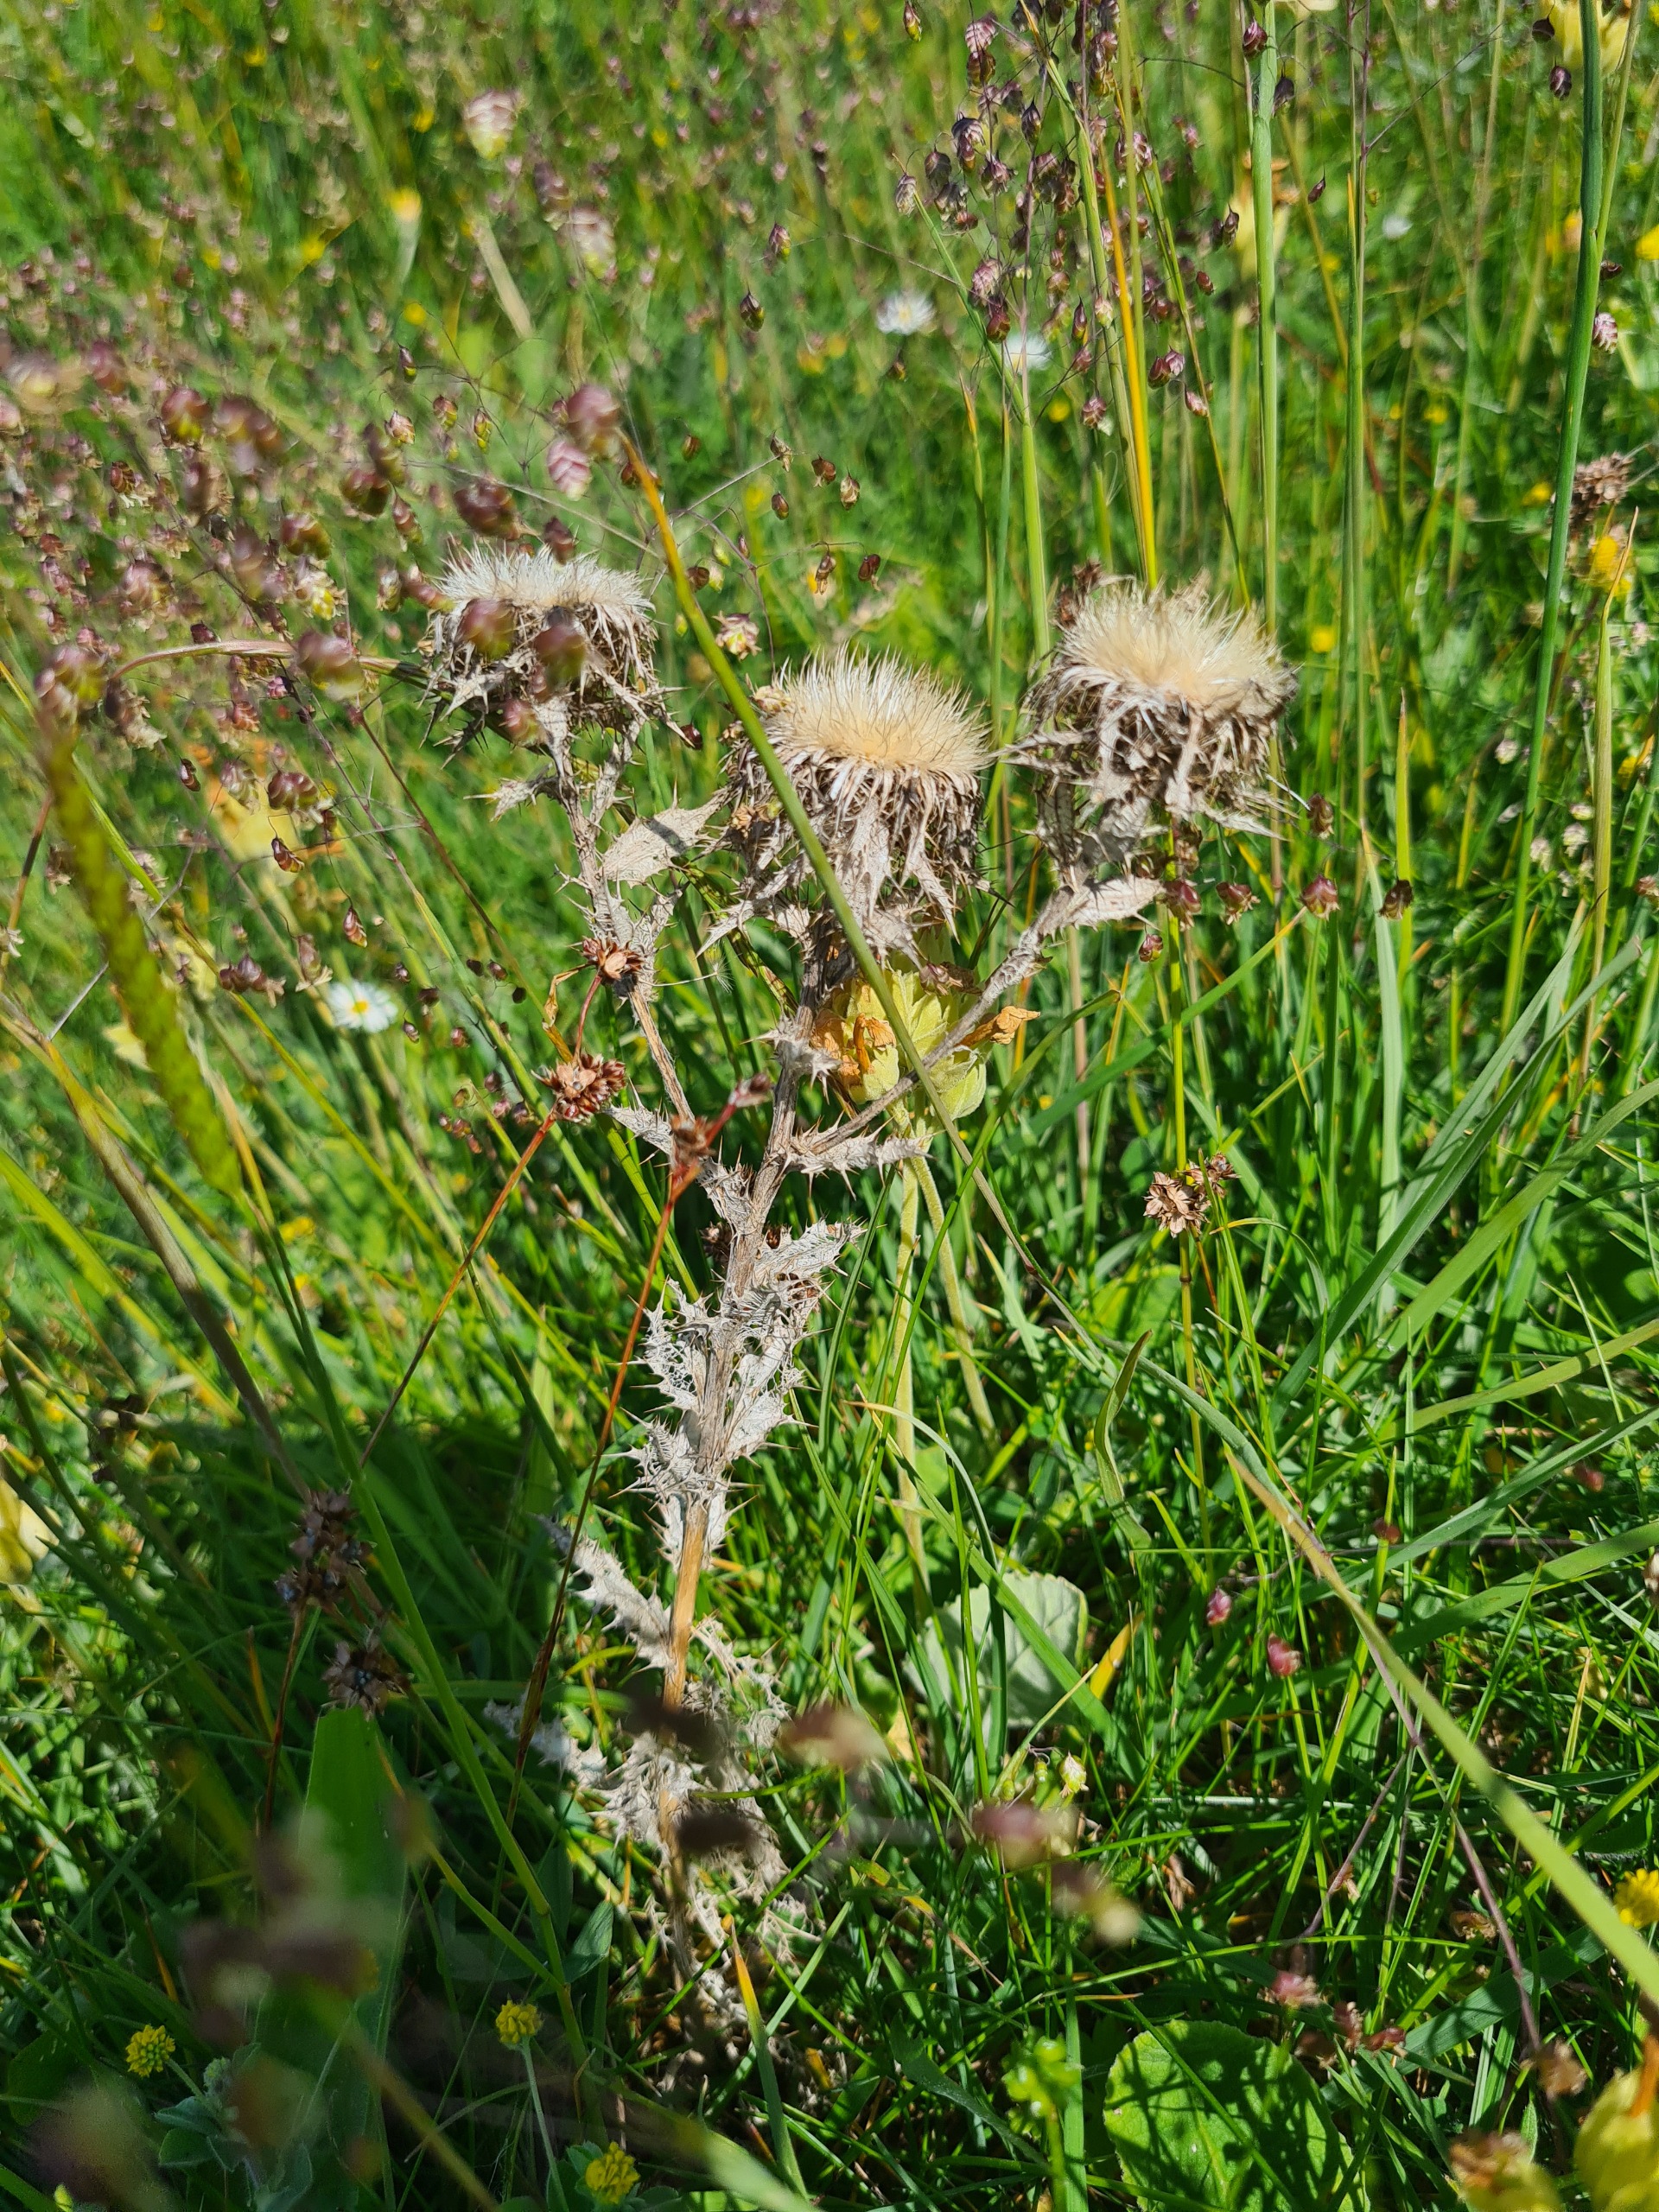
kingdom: Plantae
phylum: Tracheophyta
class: Magnoliopsida
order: Asterales
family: Asteraceae
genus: Carlina
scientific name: Carlina vulgaris
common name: Bakketidsel
